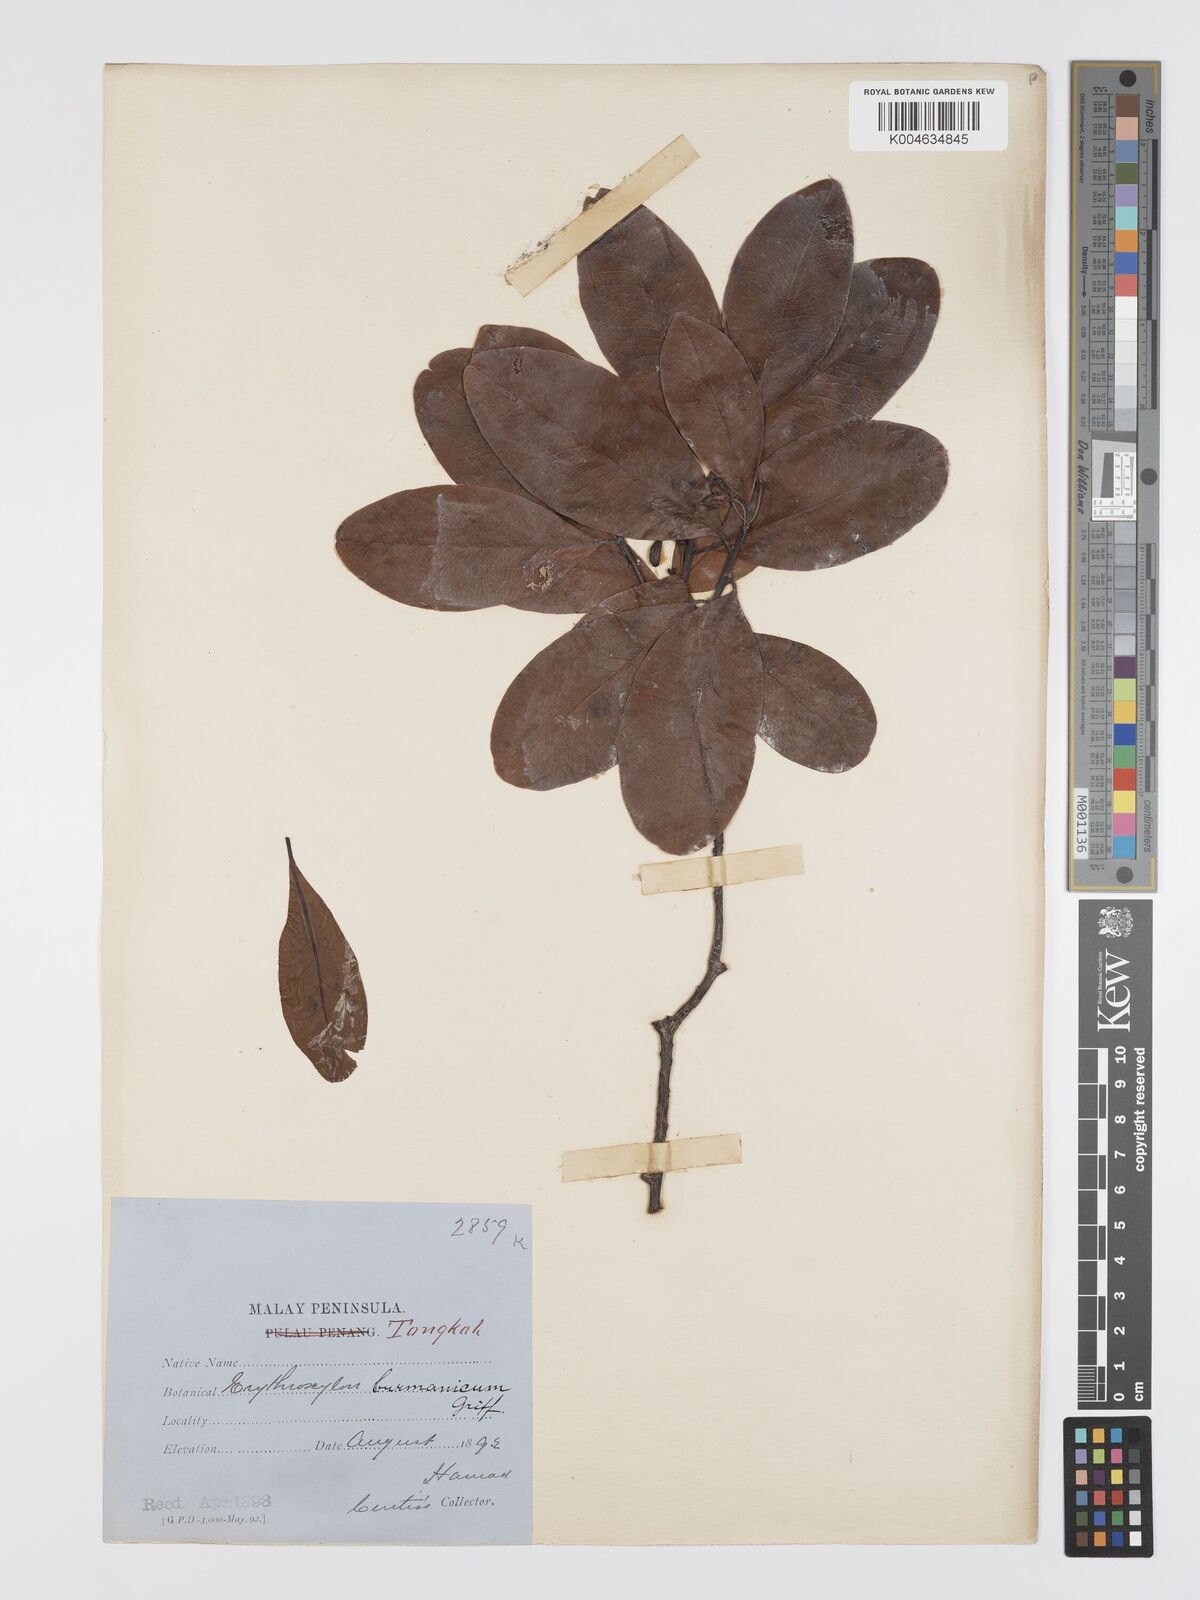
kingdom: Plantae
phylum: Tracheophyta
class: Magnoliopsida
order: Malpighiales
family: Erythroxylaceae
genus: Erythroxylum
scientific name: Erythroxylum cuneatum
